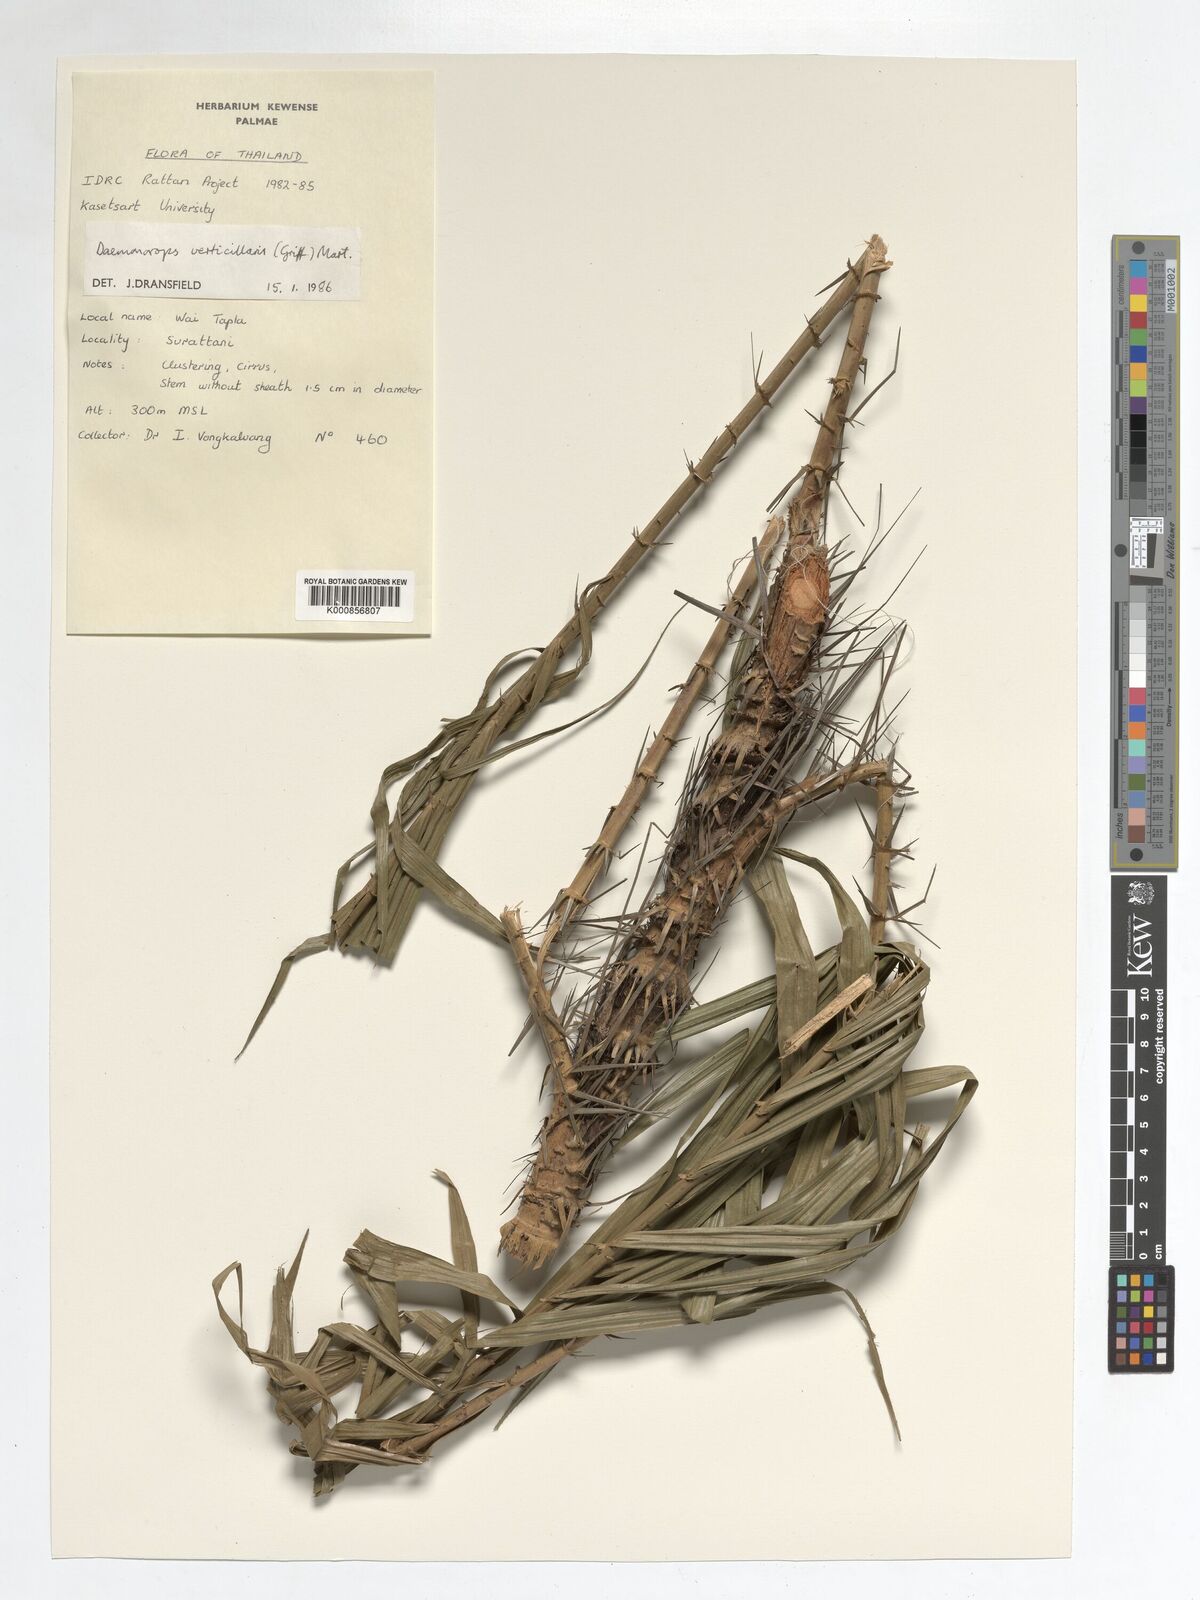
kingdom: Plantae
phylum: Tracheophyta
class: Liliopsida
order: Arecales
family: Arecaceae
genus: Calamus
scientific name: Calamus verticillaris
